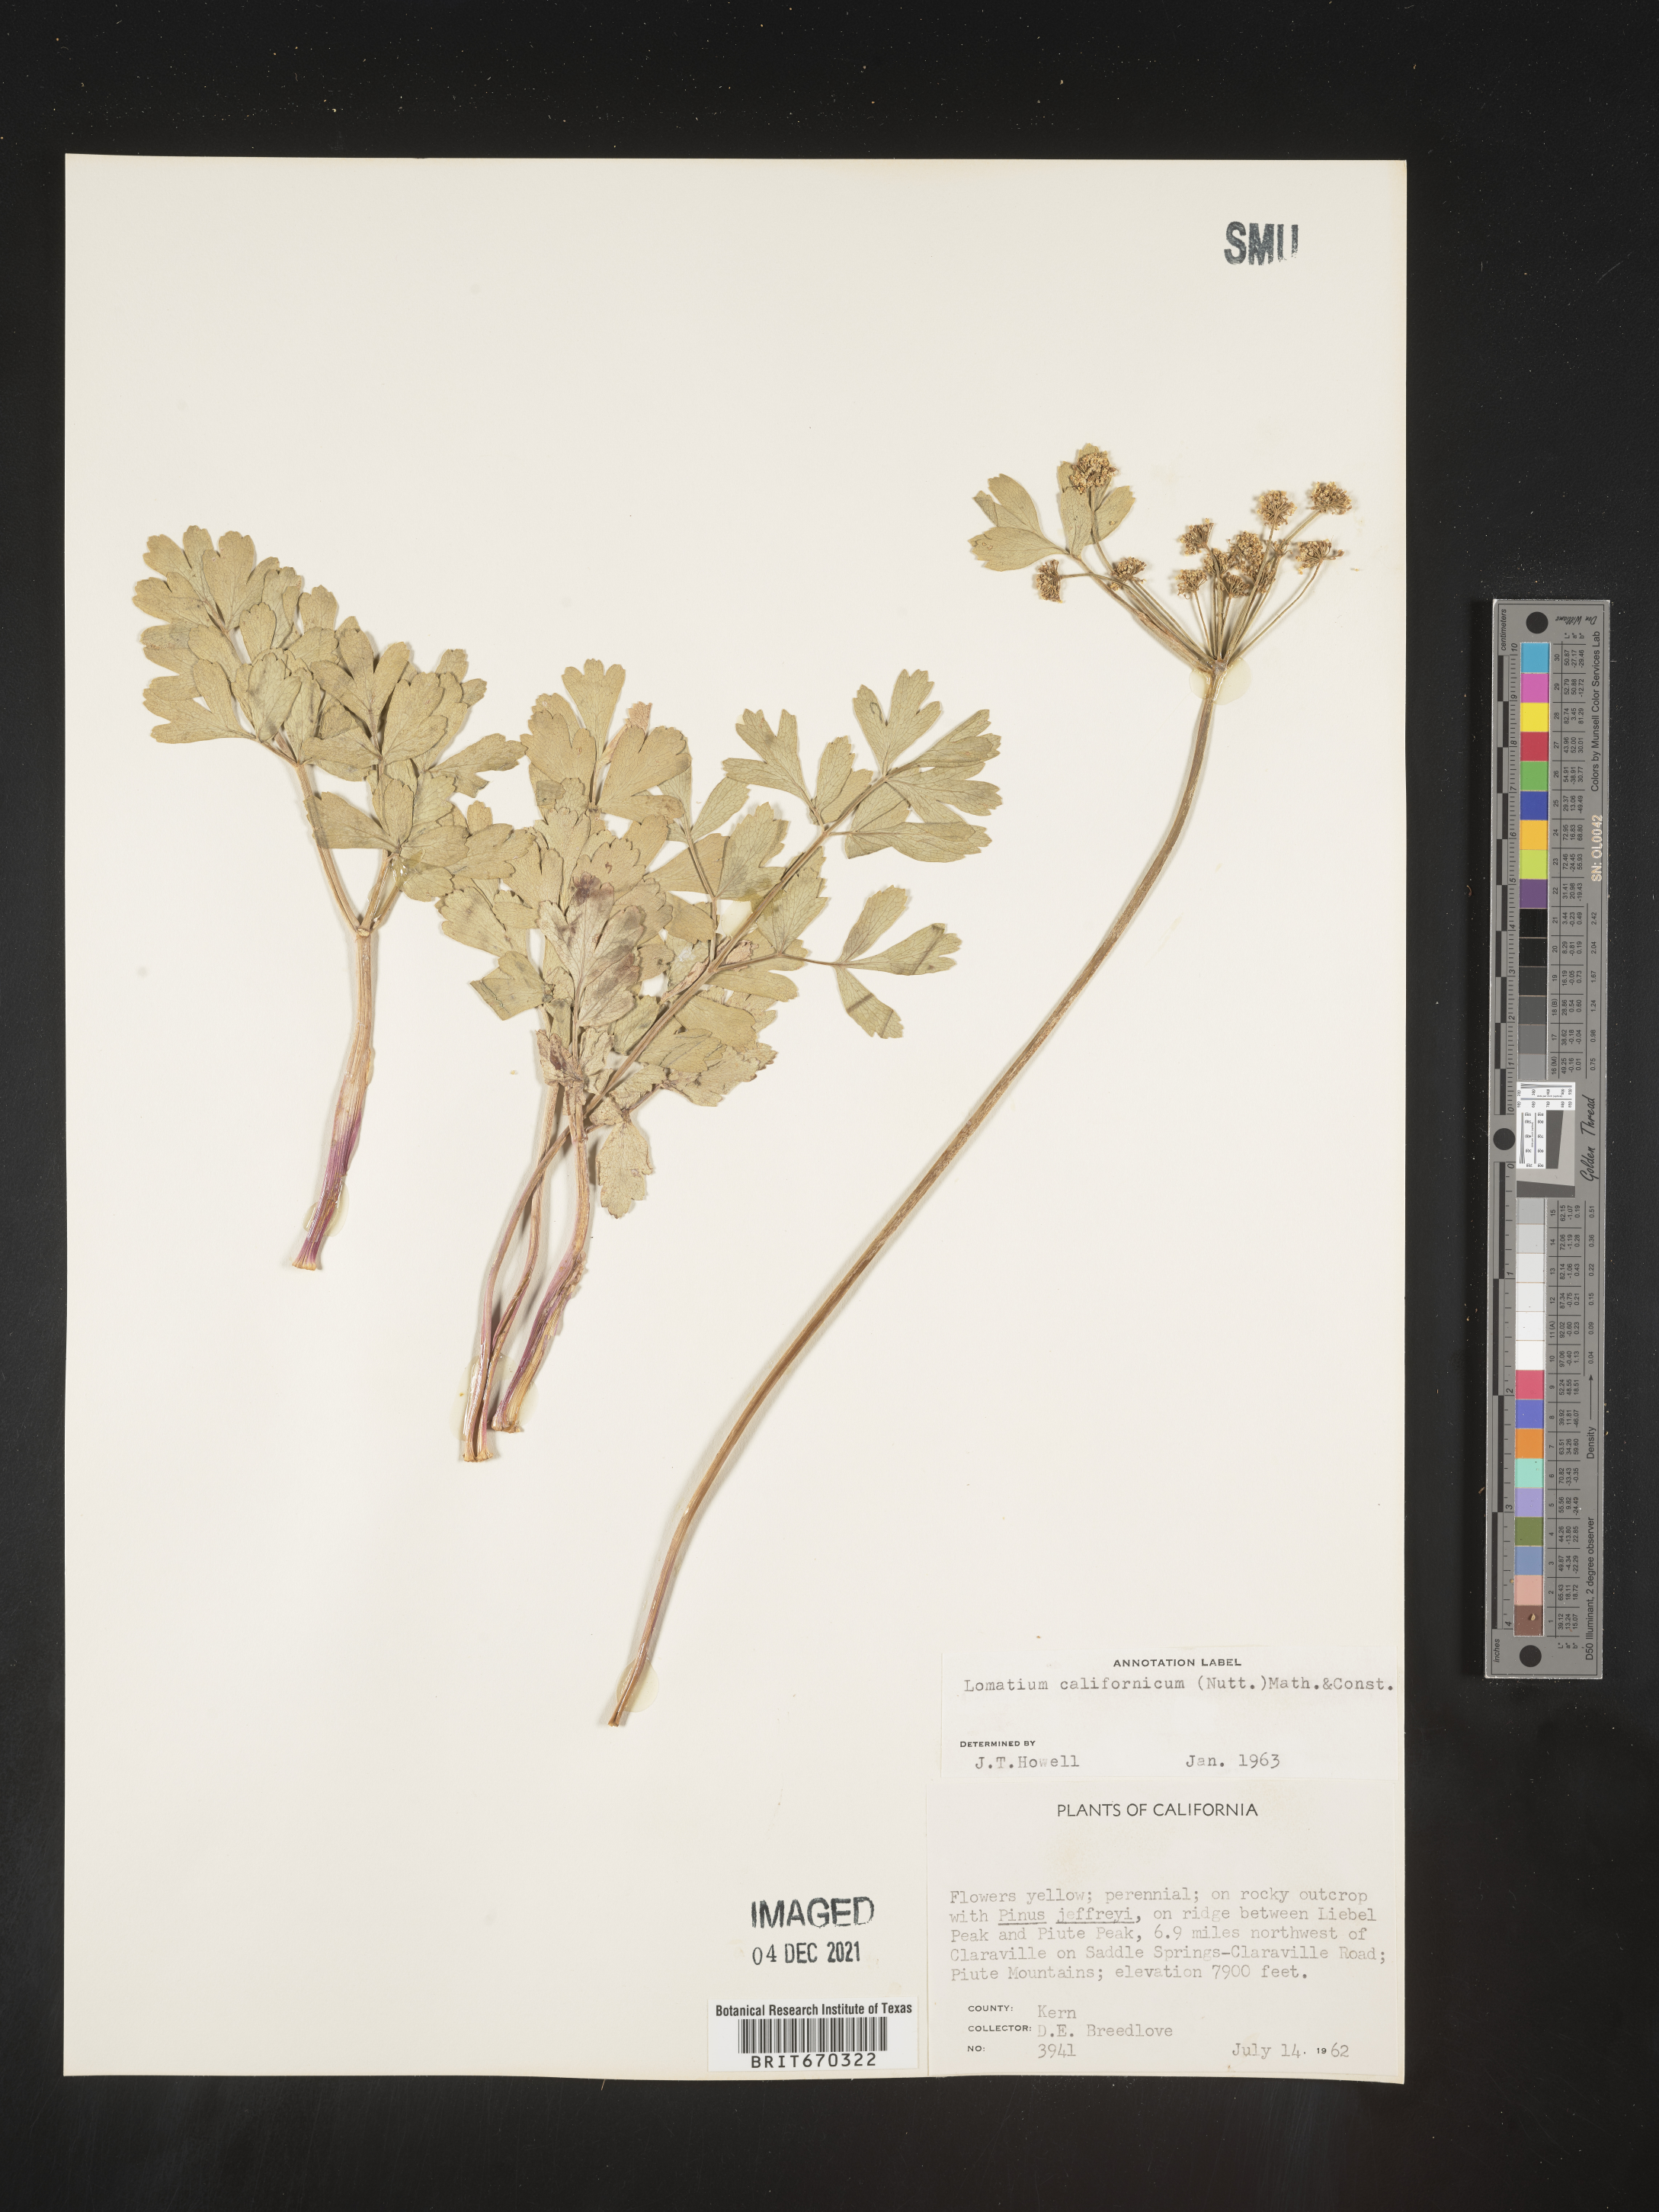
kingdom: Plantae
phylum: Tracheophyta
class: Magnoliopsida
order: Apiales
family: Apiaceae
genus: Lomatium
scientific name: Lomatium californicum
